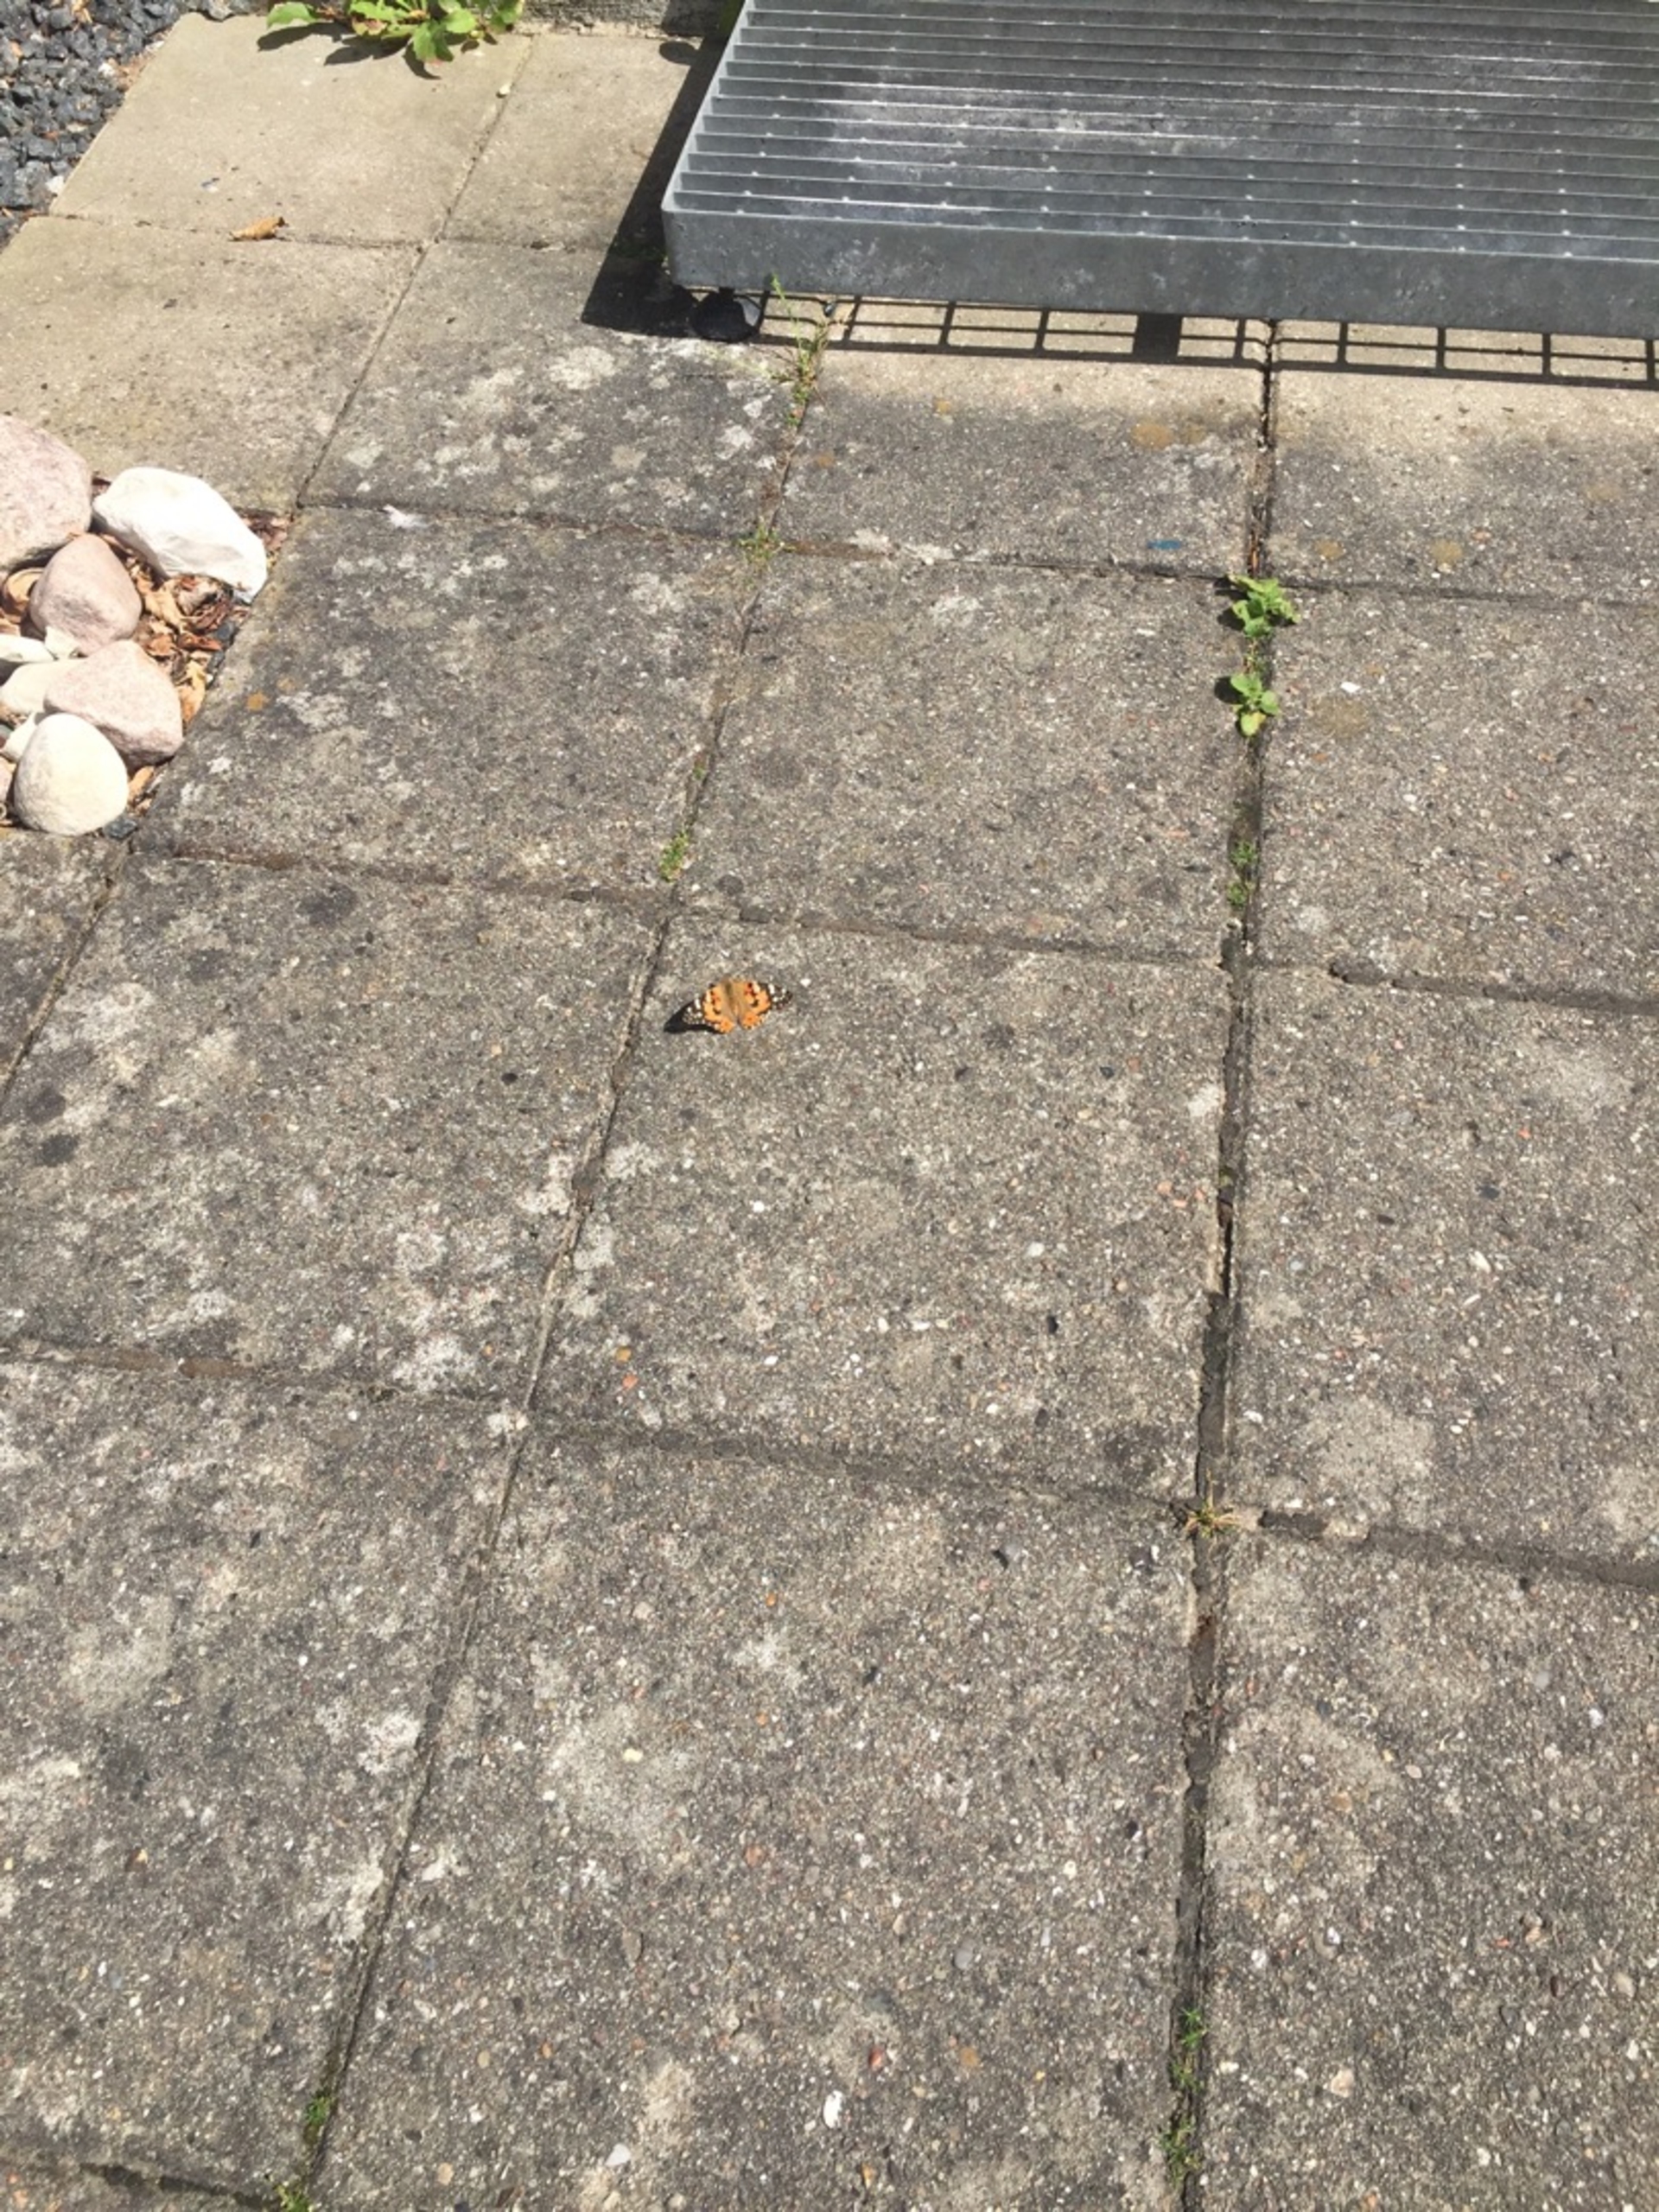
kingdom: Animalia
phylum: Arthropoda
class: Insecta
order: Lepidoptera
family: Nymphalidae
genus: Vanessa
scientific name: Vanessa cardui
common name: Tidselsommerfugl
